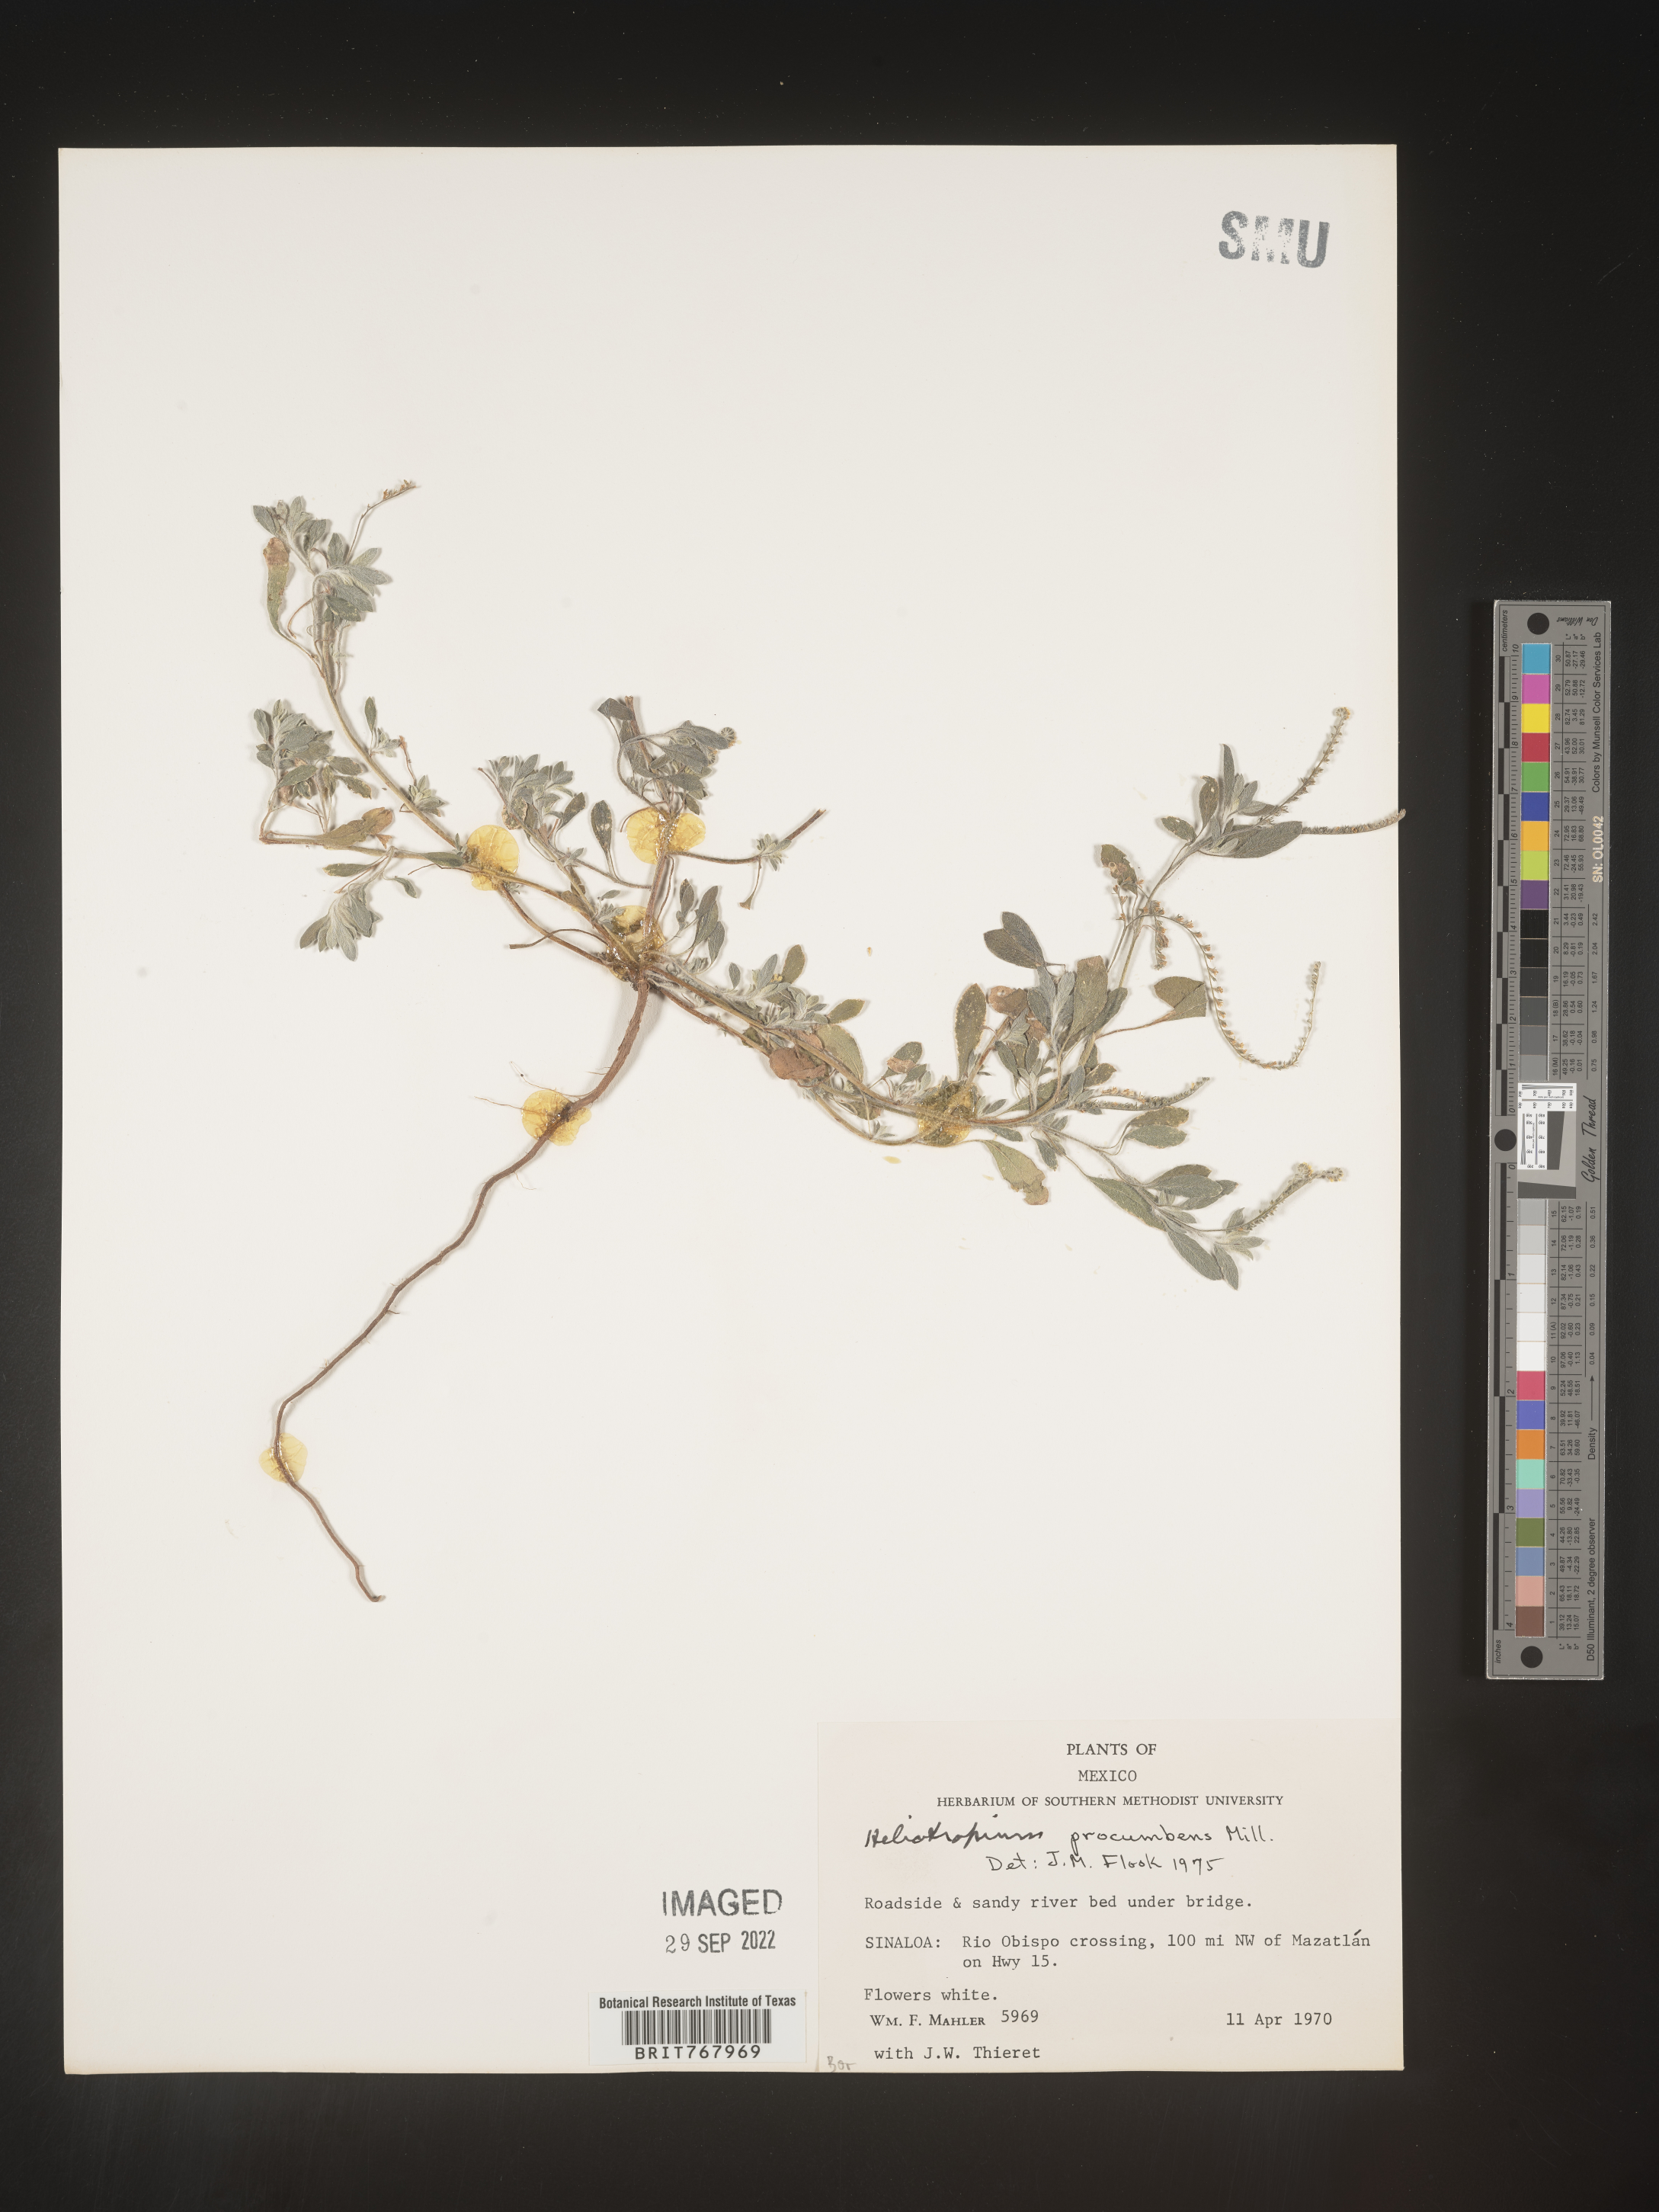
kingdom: Plantae
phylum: Tracheophyta
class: Magnoliopsida
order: Boraginales
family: Heliotropiaceae
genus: Heliotropium
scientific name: Heliotropium
